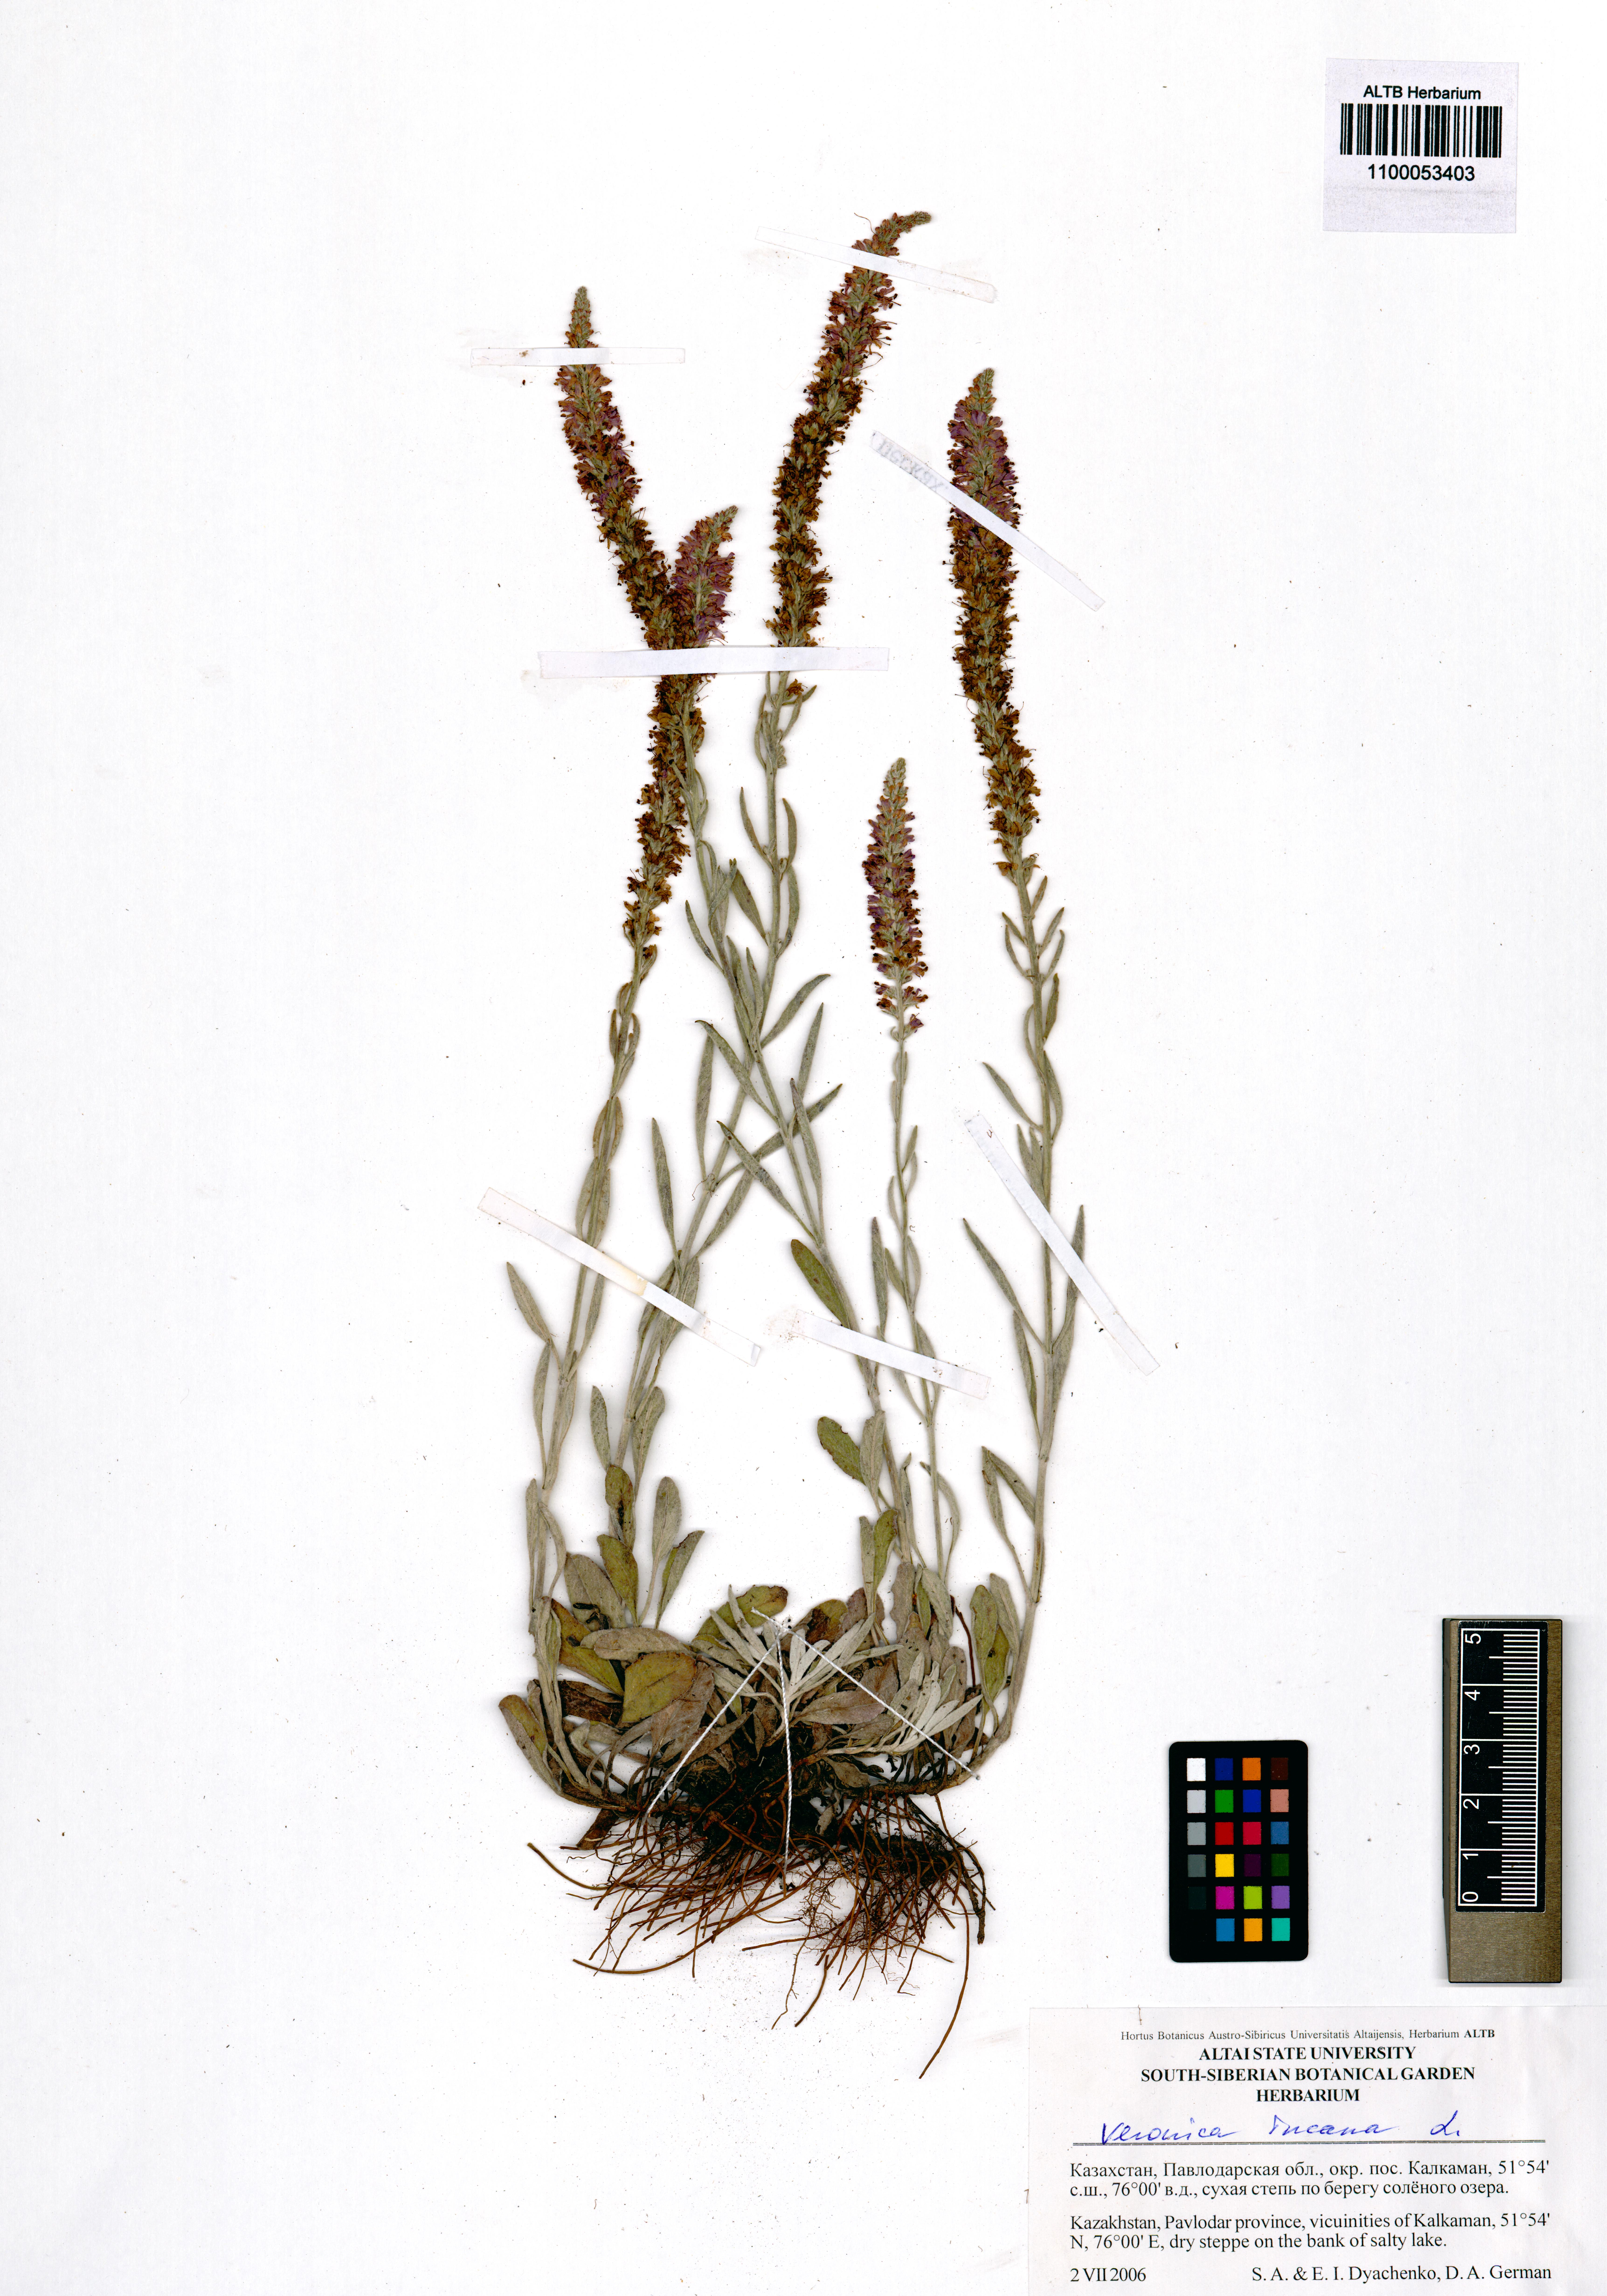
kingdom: Plantae
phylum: Tracheophyta
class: Magnoliopsida
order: Lamiales
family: Plantaginaceae
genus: Veronica
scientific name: Veronica incana
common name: Silver speedwell
